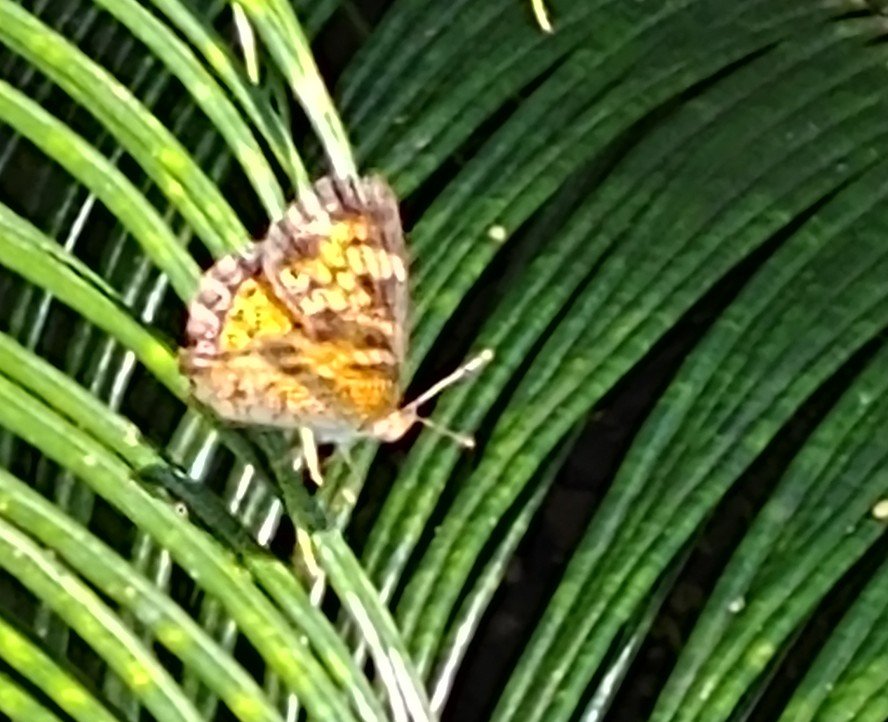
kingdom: Animalia
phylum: Arthropoda
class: Insecta
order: Lepidoptera
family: Nymphalidae
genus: Phyciodes
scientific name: Phyciodes phaon
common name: Phaon Crescent
